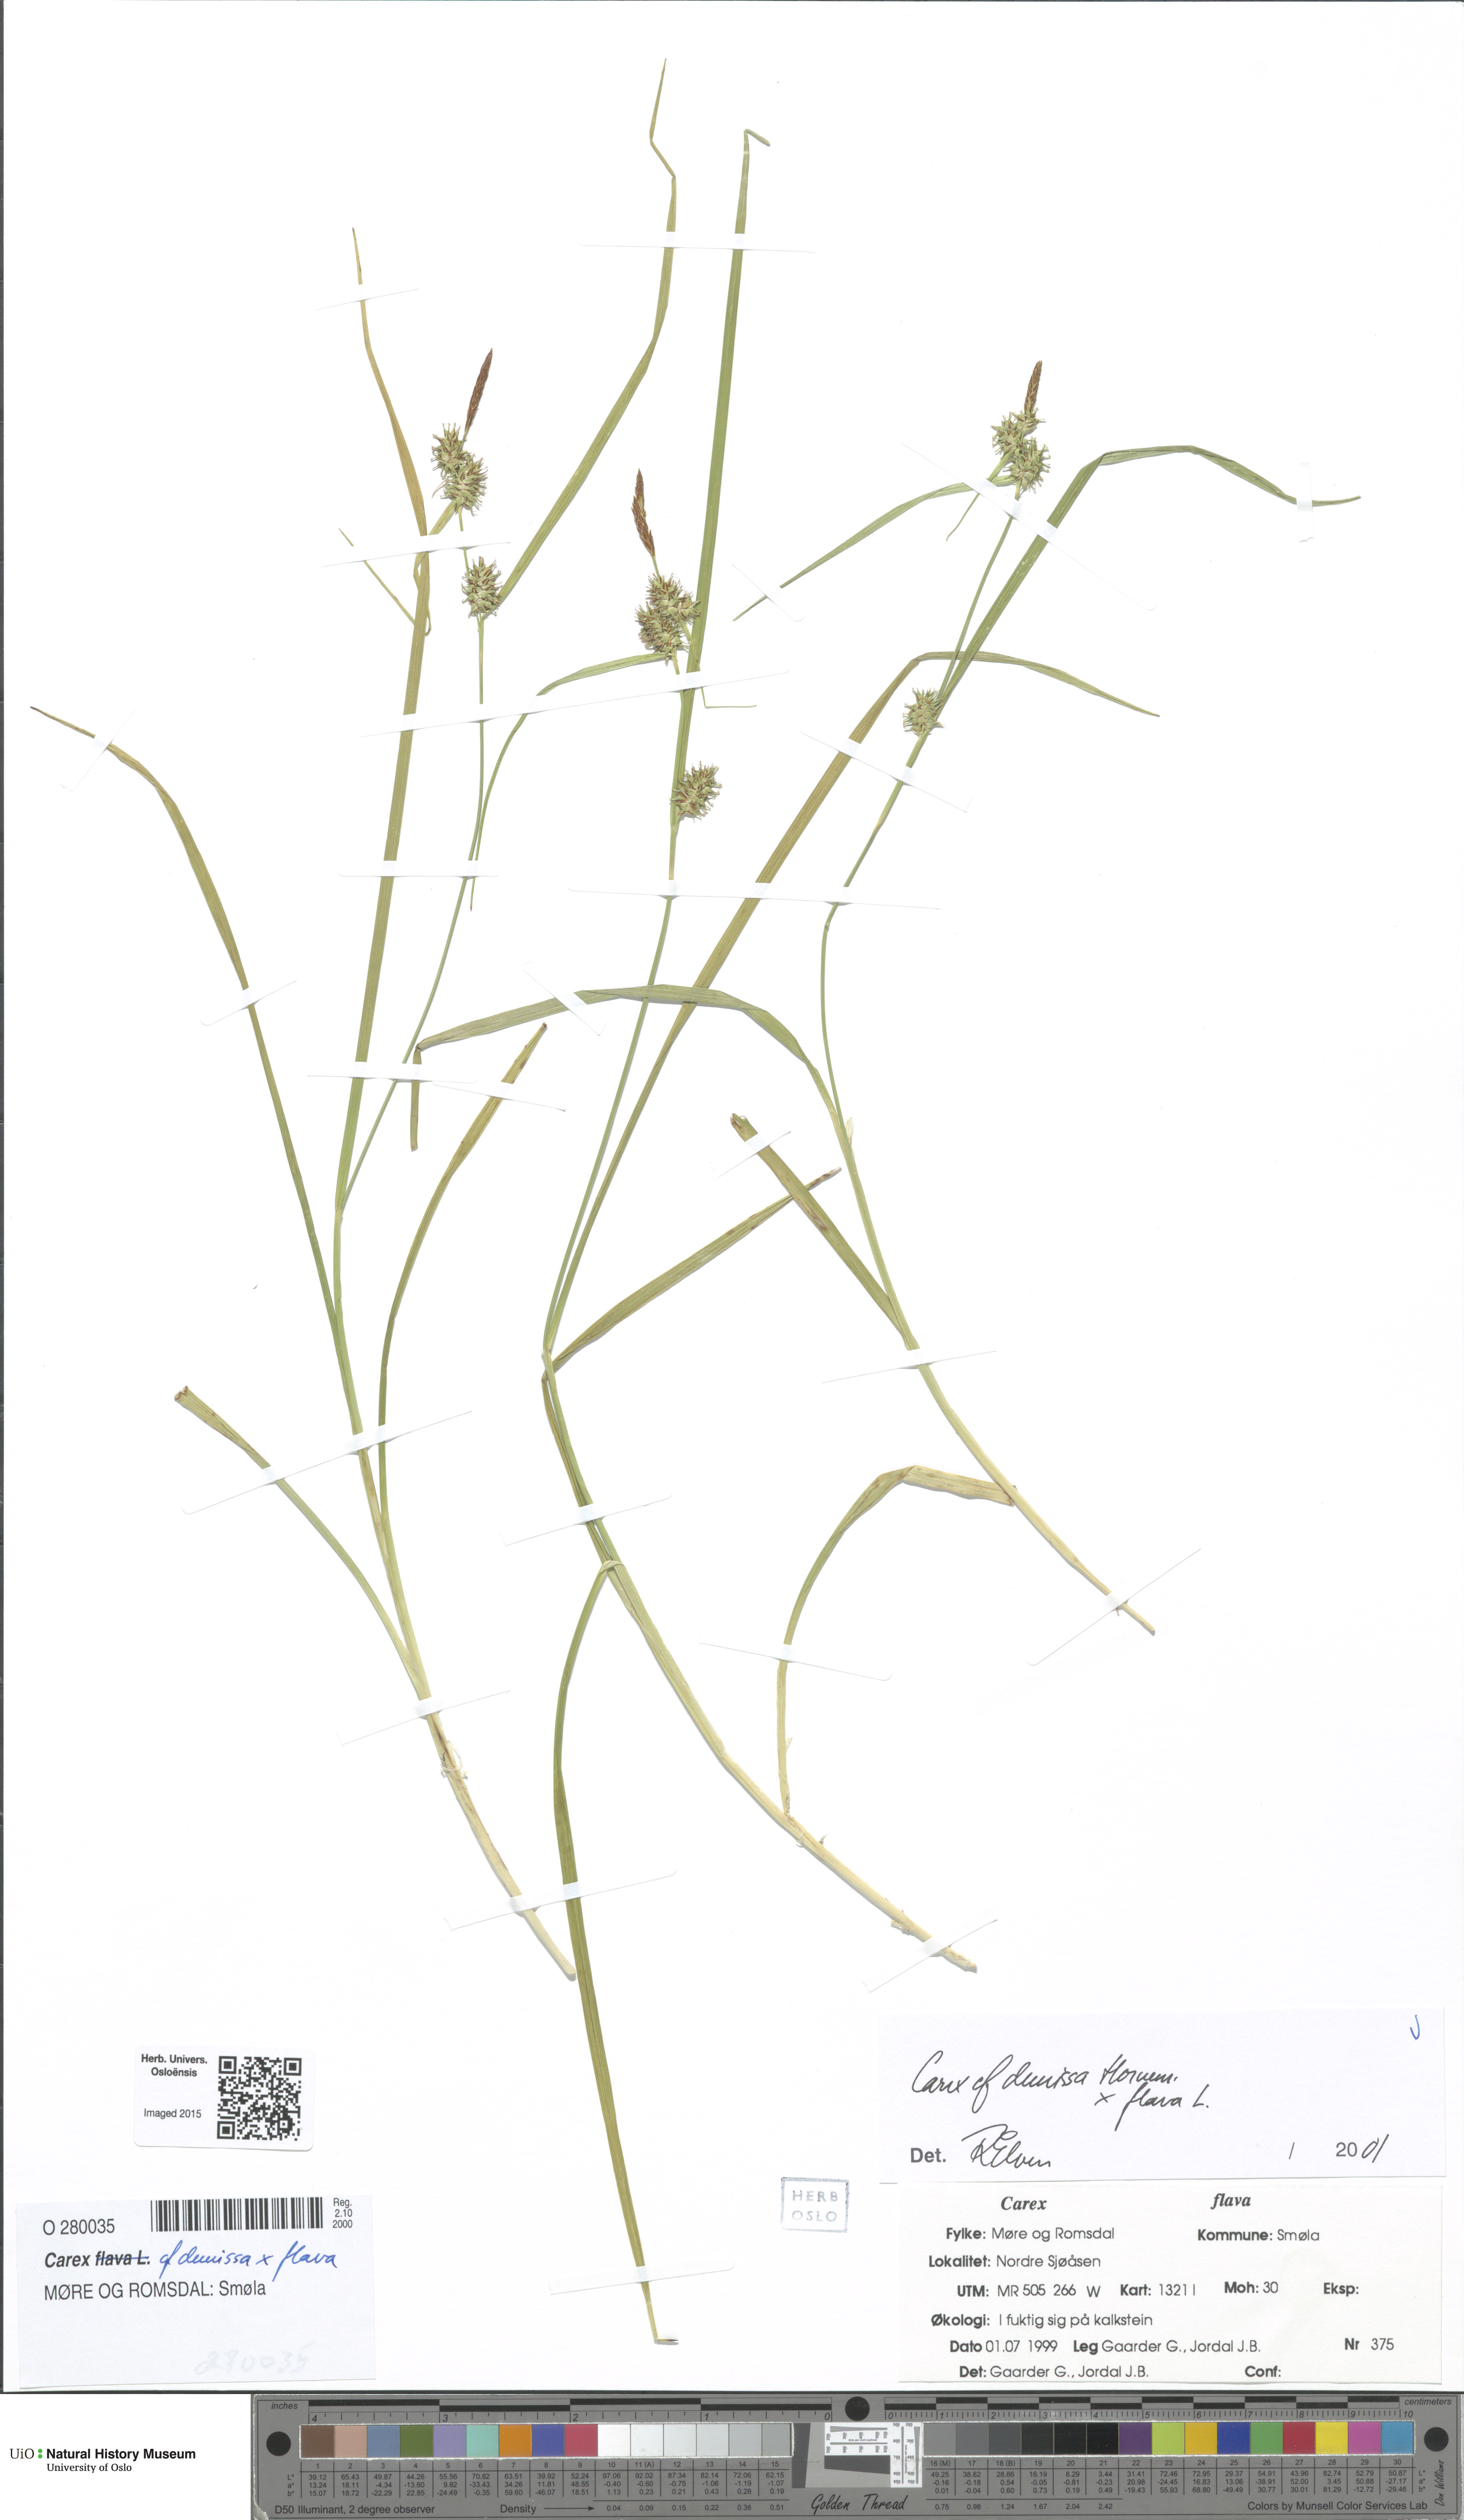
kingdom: Plantae
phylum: Tracheophyta
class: Liliopsida
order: Poales
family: Cyperaceae
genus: Carex
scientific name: Carex
